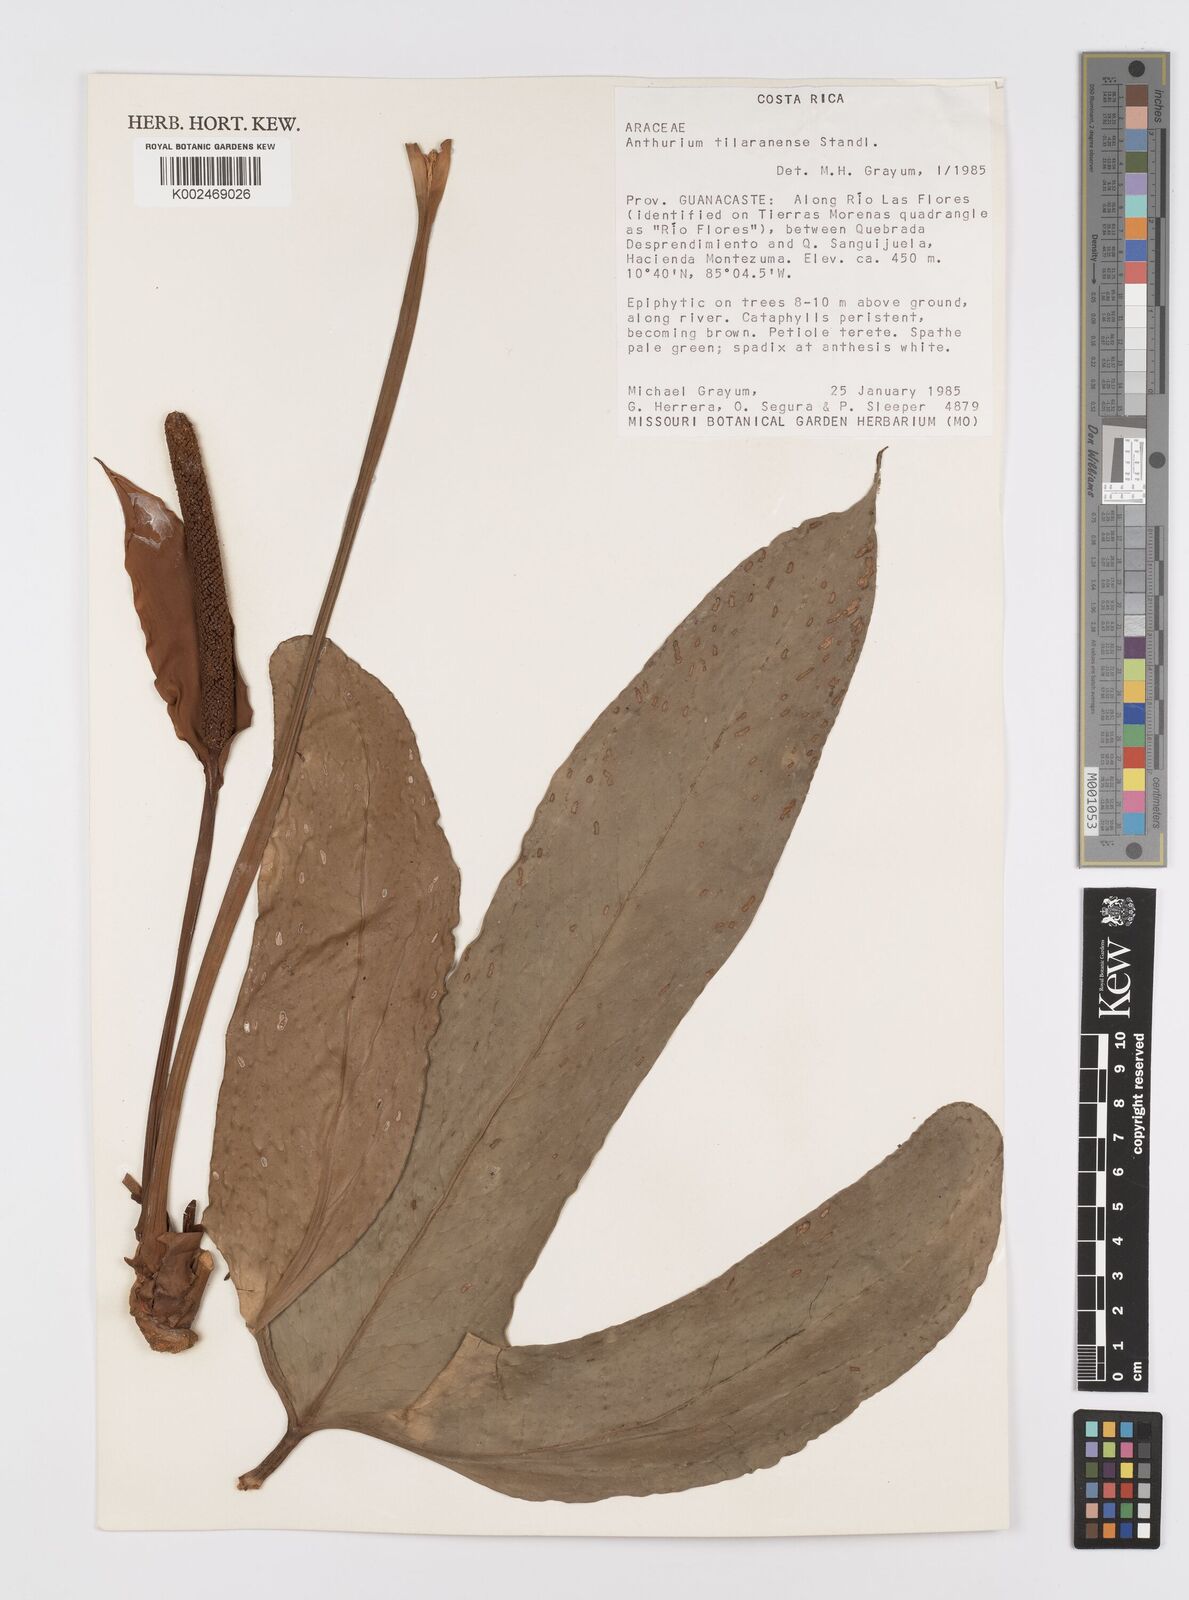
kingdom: Plantae
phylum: Tracheophyta
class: Liliopsida
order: Alismatales
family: Araceae
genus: Anthurium
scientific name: Anthurium tilaranense
